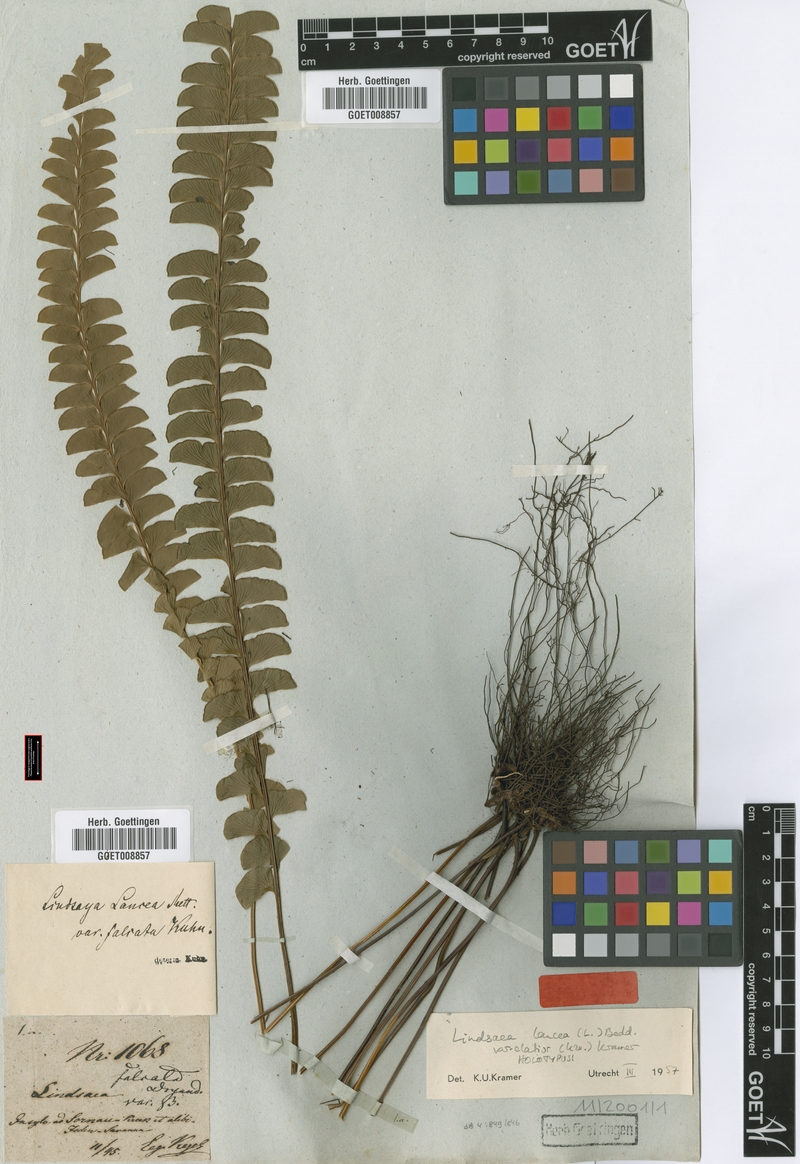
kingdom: Plantae
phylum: Tracheophyta
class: Polypodiopsida
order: Polypodiales
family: Lindsaeaceae
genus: Lindsaea
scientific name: Lindsaea elatior
